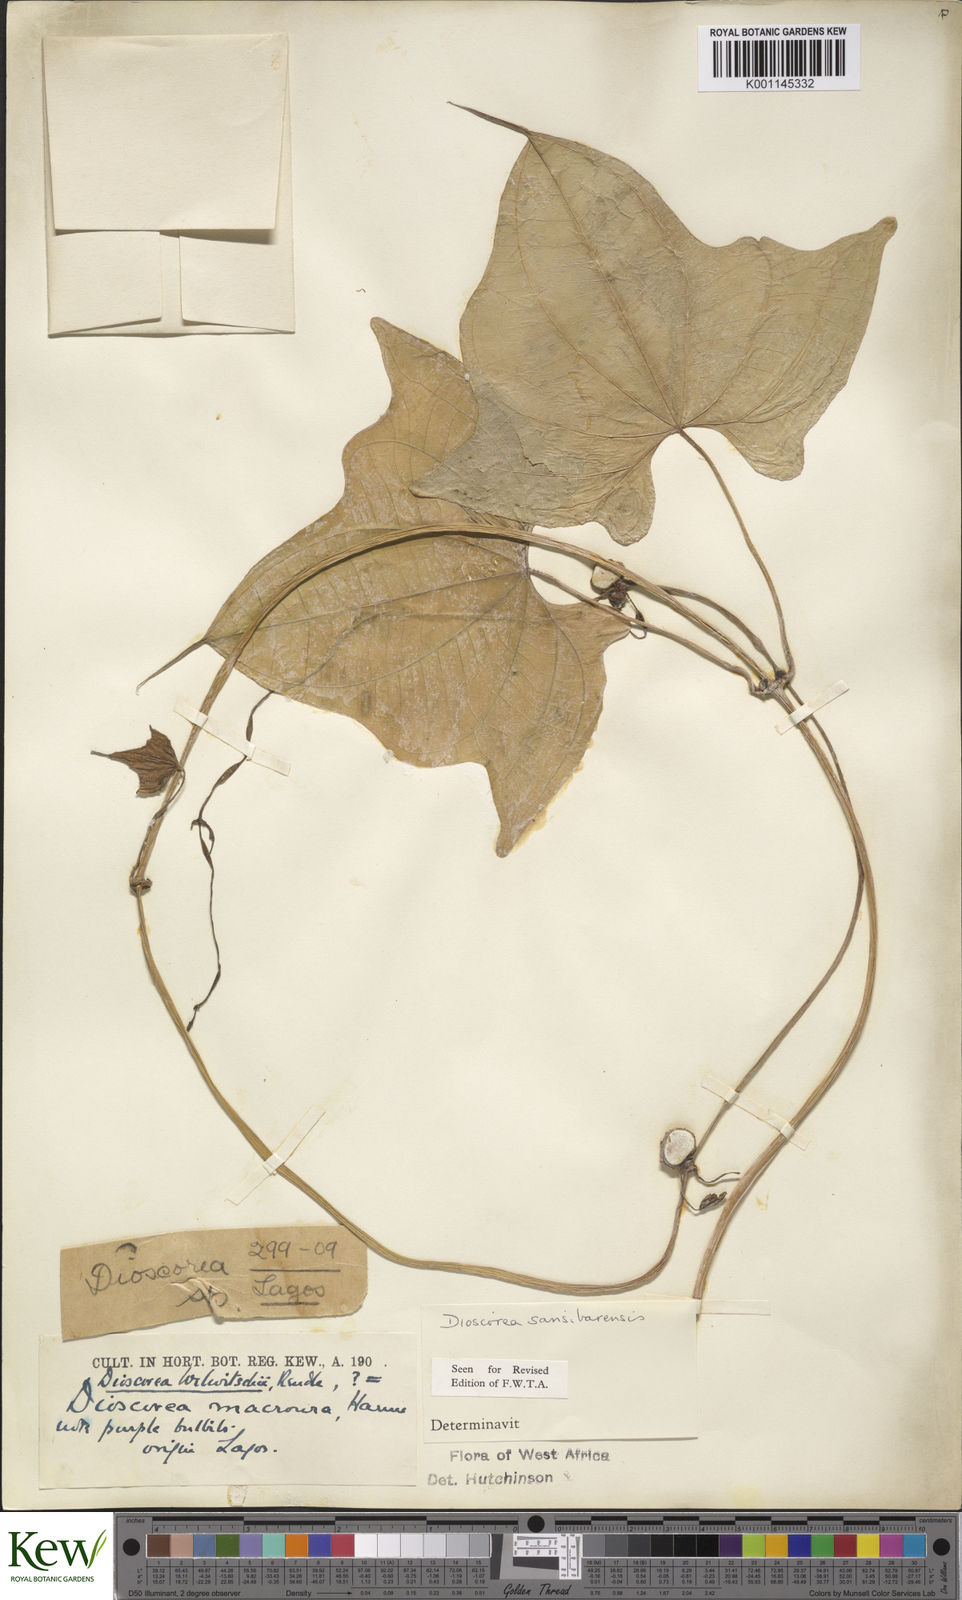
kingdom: Plantae
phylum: Tracheophyta
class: Liliopsida
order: Dioscoreales
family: Dioscoreaceae
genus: Dioscorea
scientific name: Dioscorea sansibarensis
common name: Zanzibar yam
